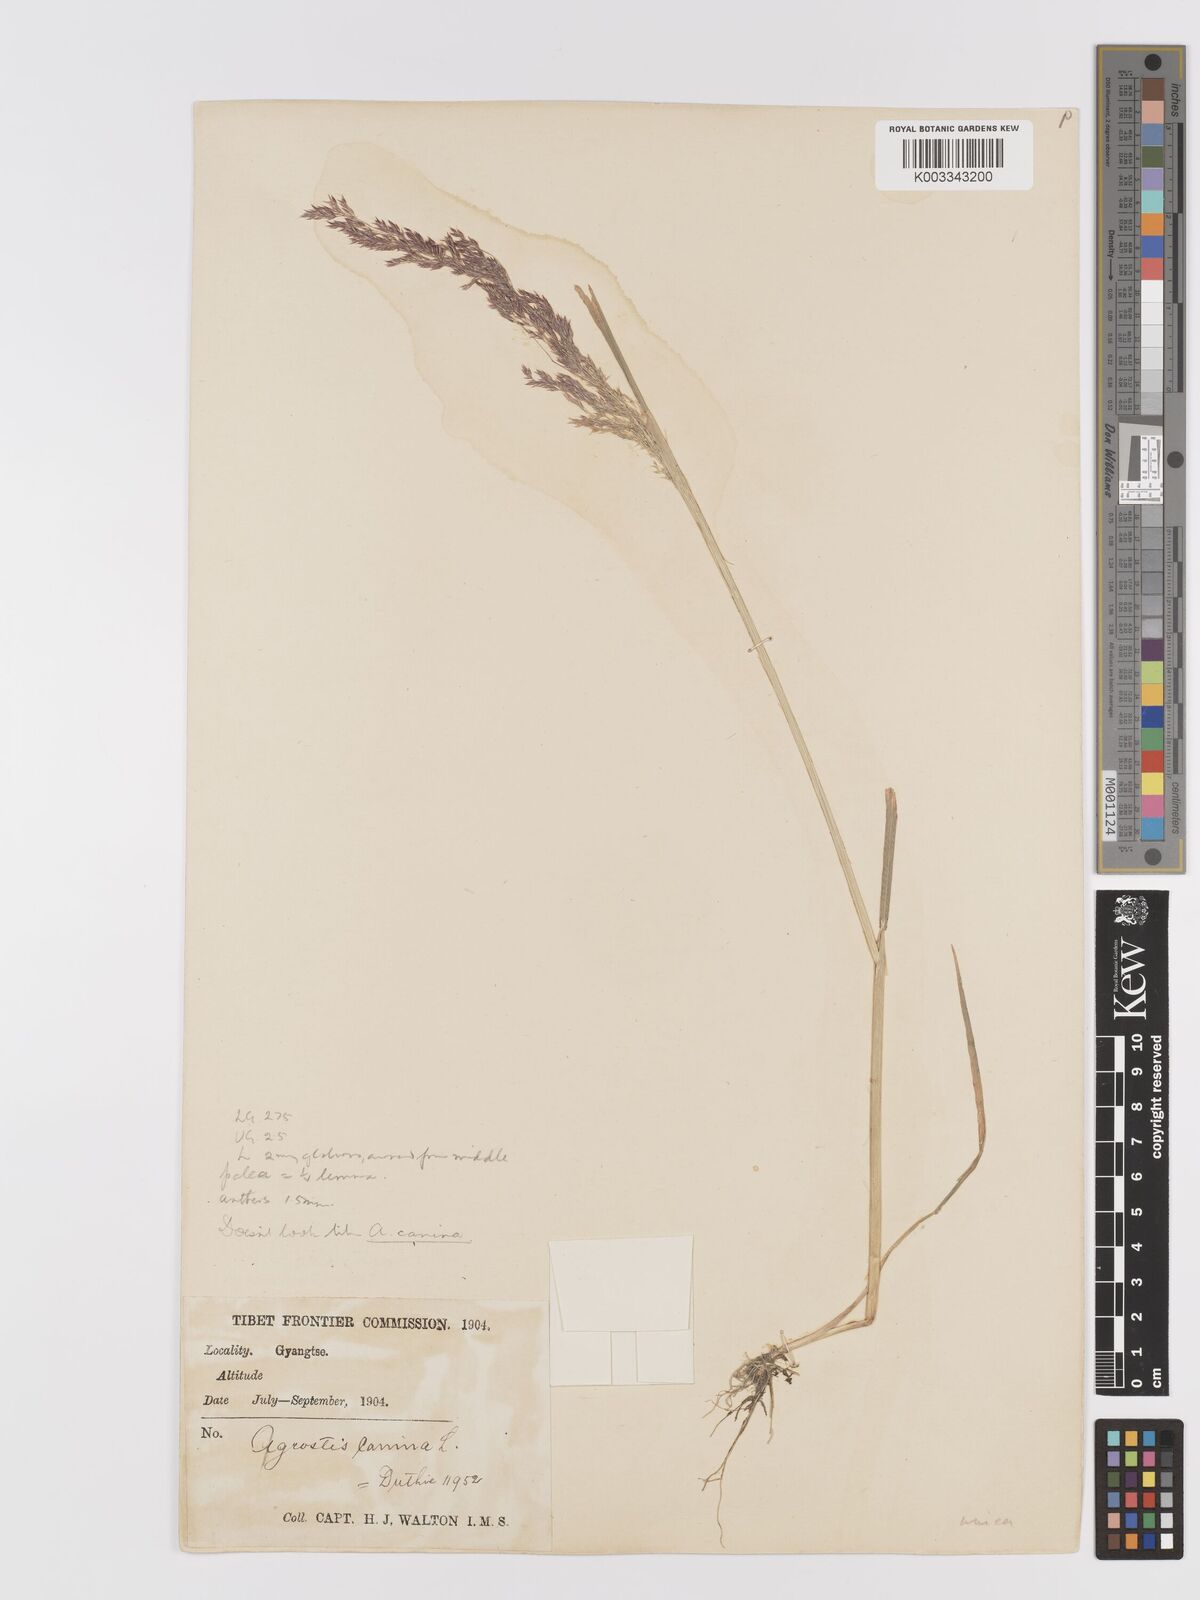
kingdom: Plantae
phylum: Tracheophyta
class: Liliopsida
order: Poales
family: Poaceae
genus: Agrostis
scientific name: Agrostis canina
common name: Velvet bent
